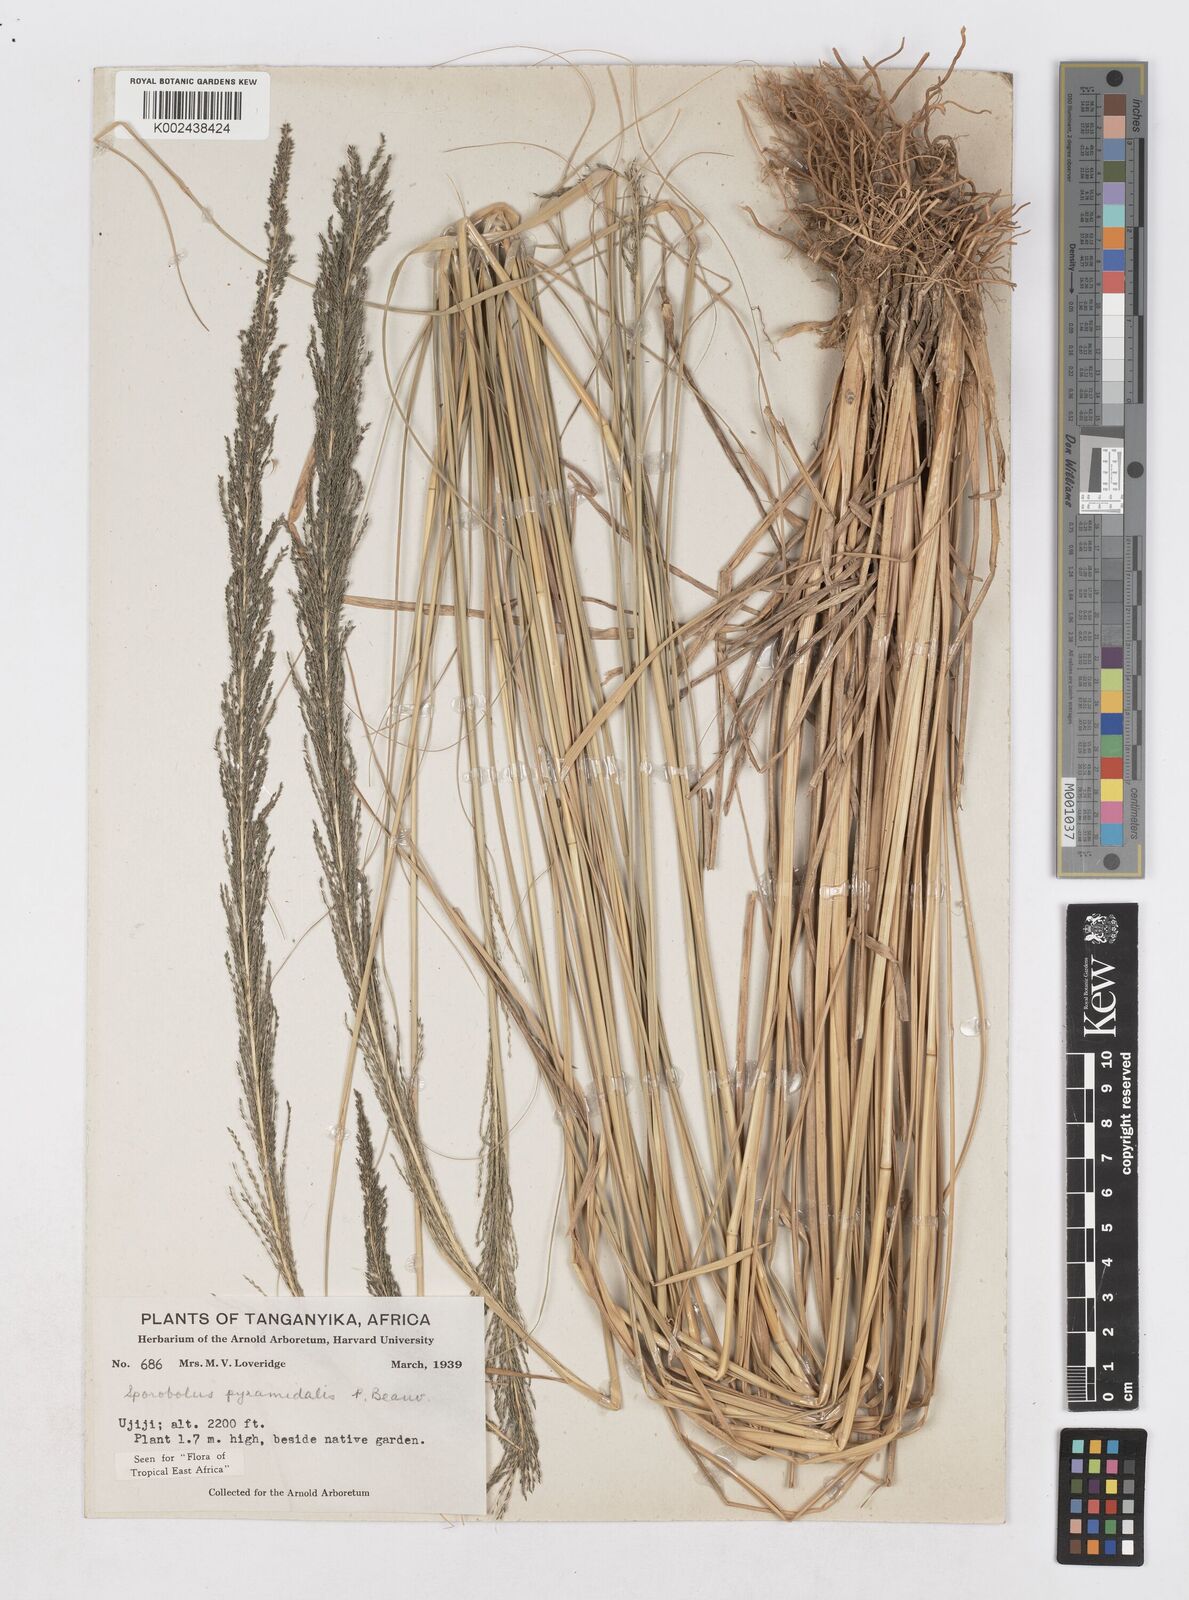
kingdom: Plantae
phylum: Tracheophyta
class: Liliopsida
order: Poales
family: Poaceae
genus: Sporobolus
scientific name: Sporobolus pyramidalis
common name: West indian dropseed
